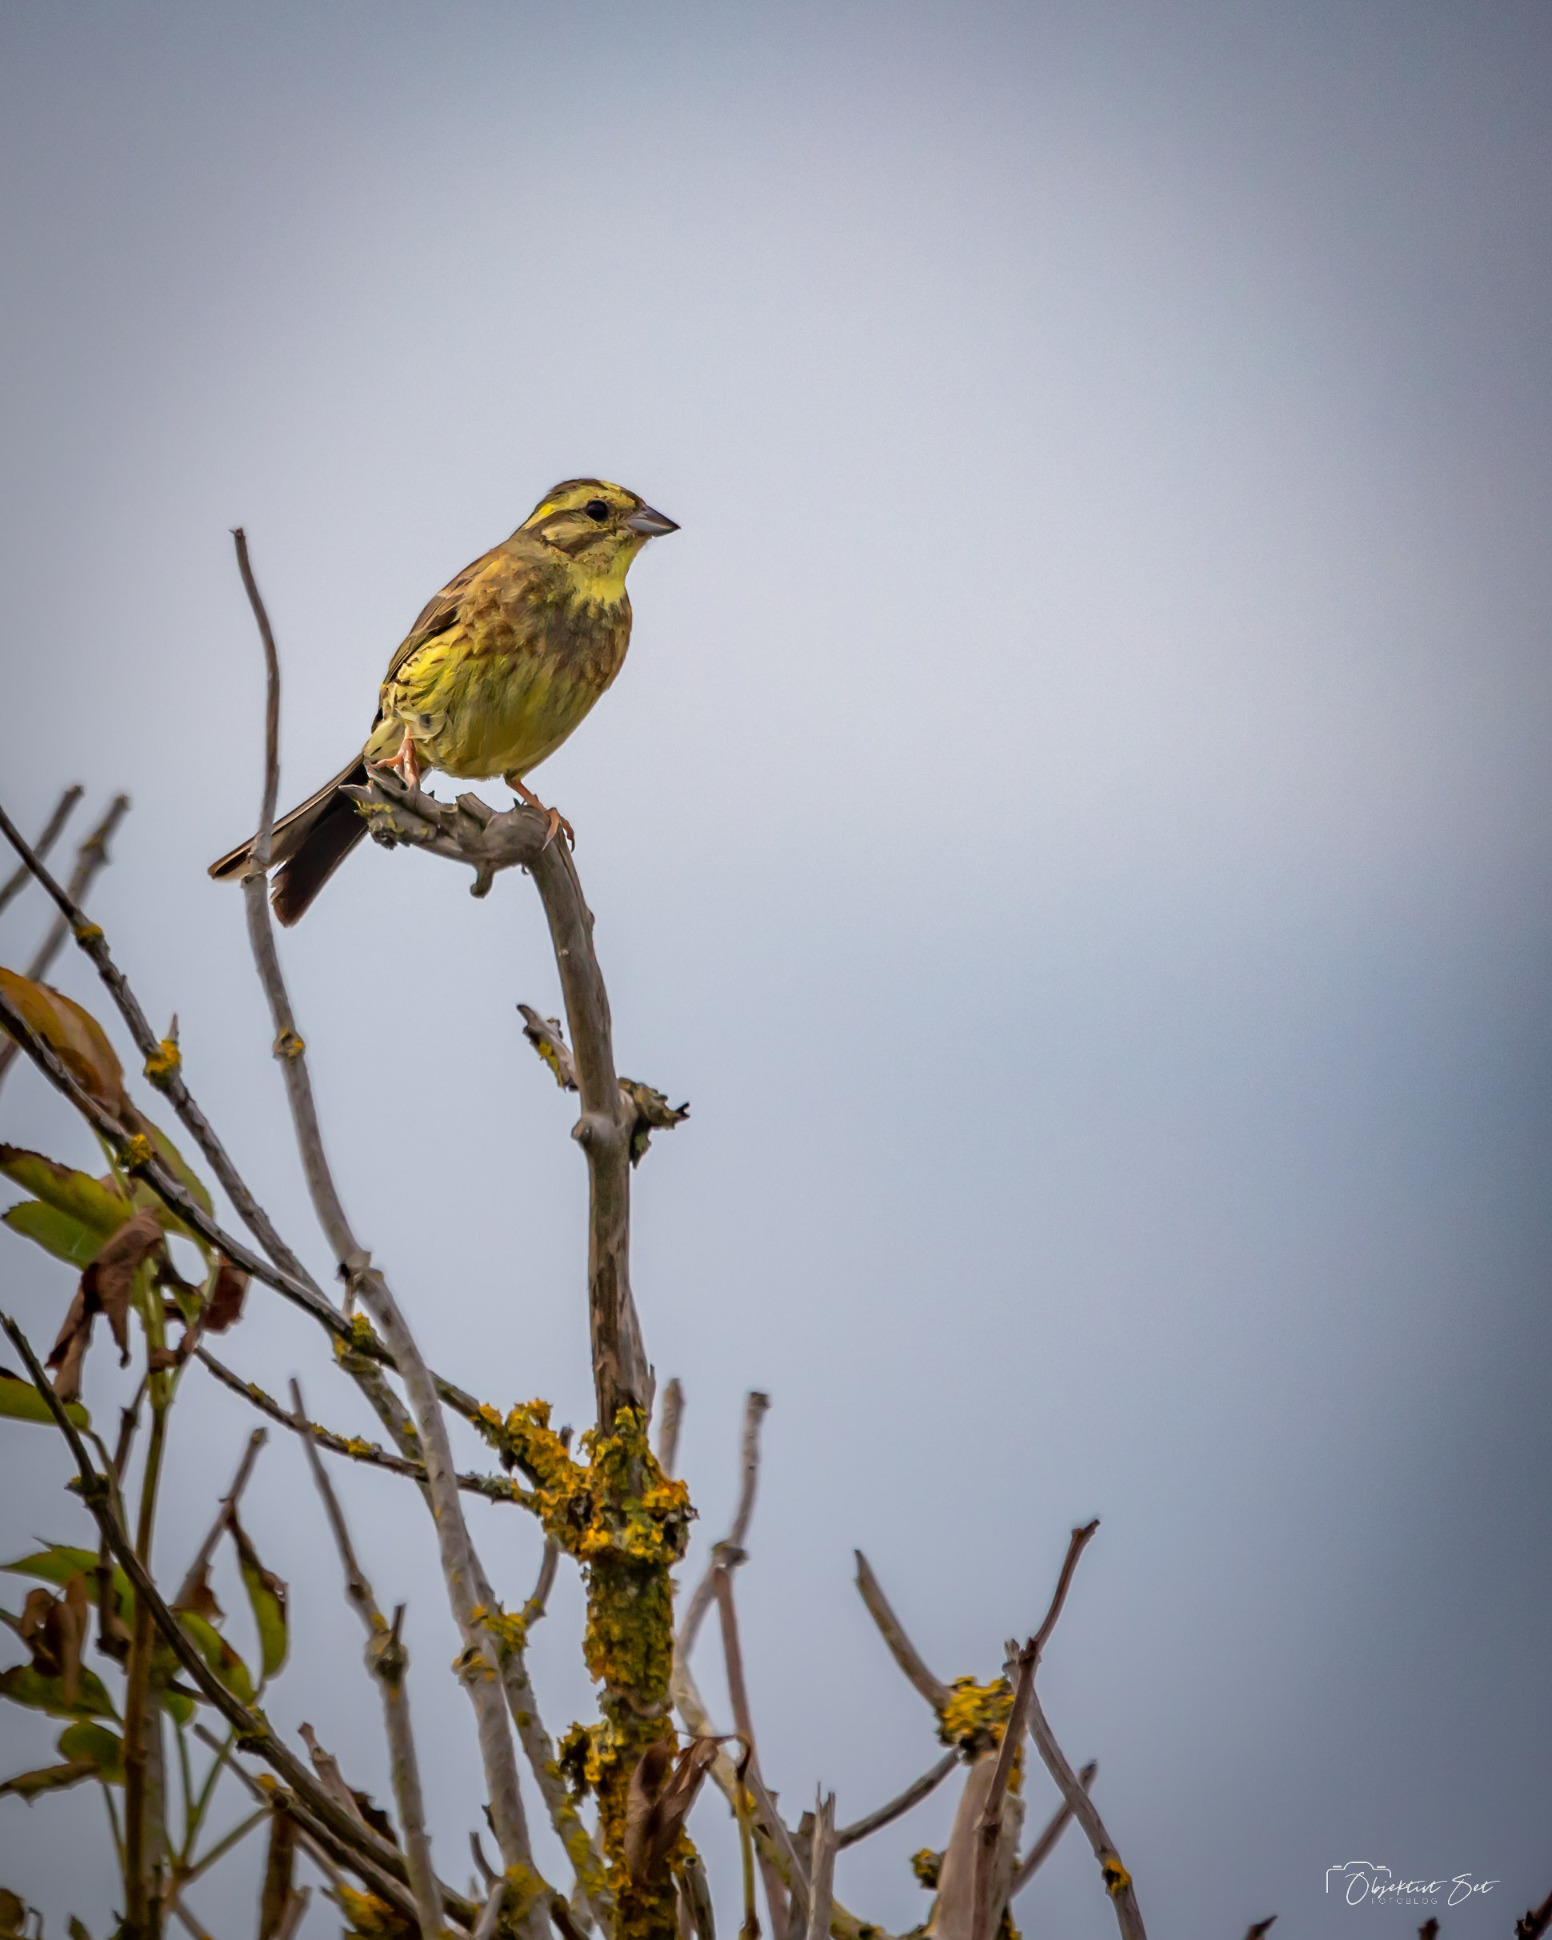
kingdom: Animalia
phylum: Chordata
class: Aves
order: Passeriformes
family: Emberizidae
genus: Emberiza
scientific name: Emberiza citrinella
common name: Gulspurv
